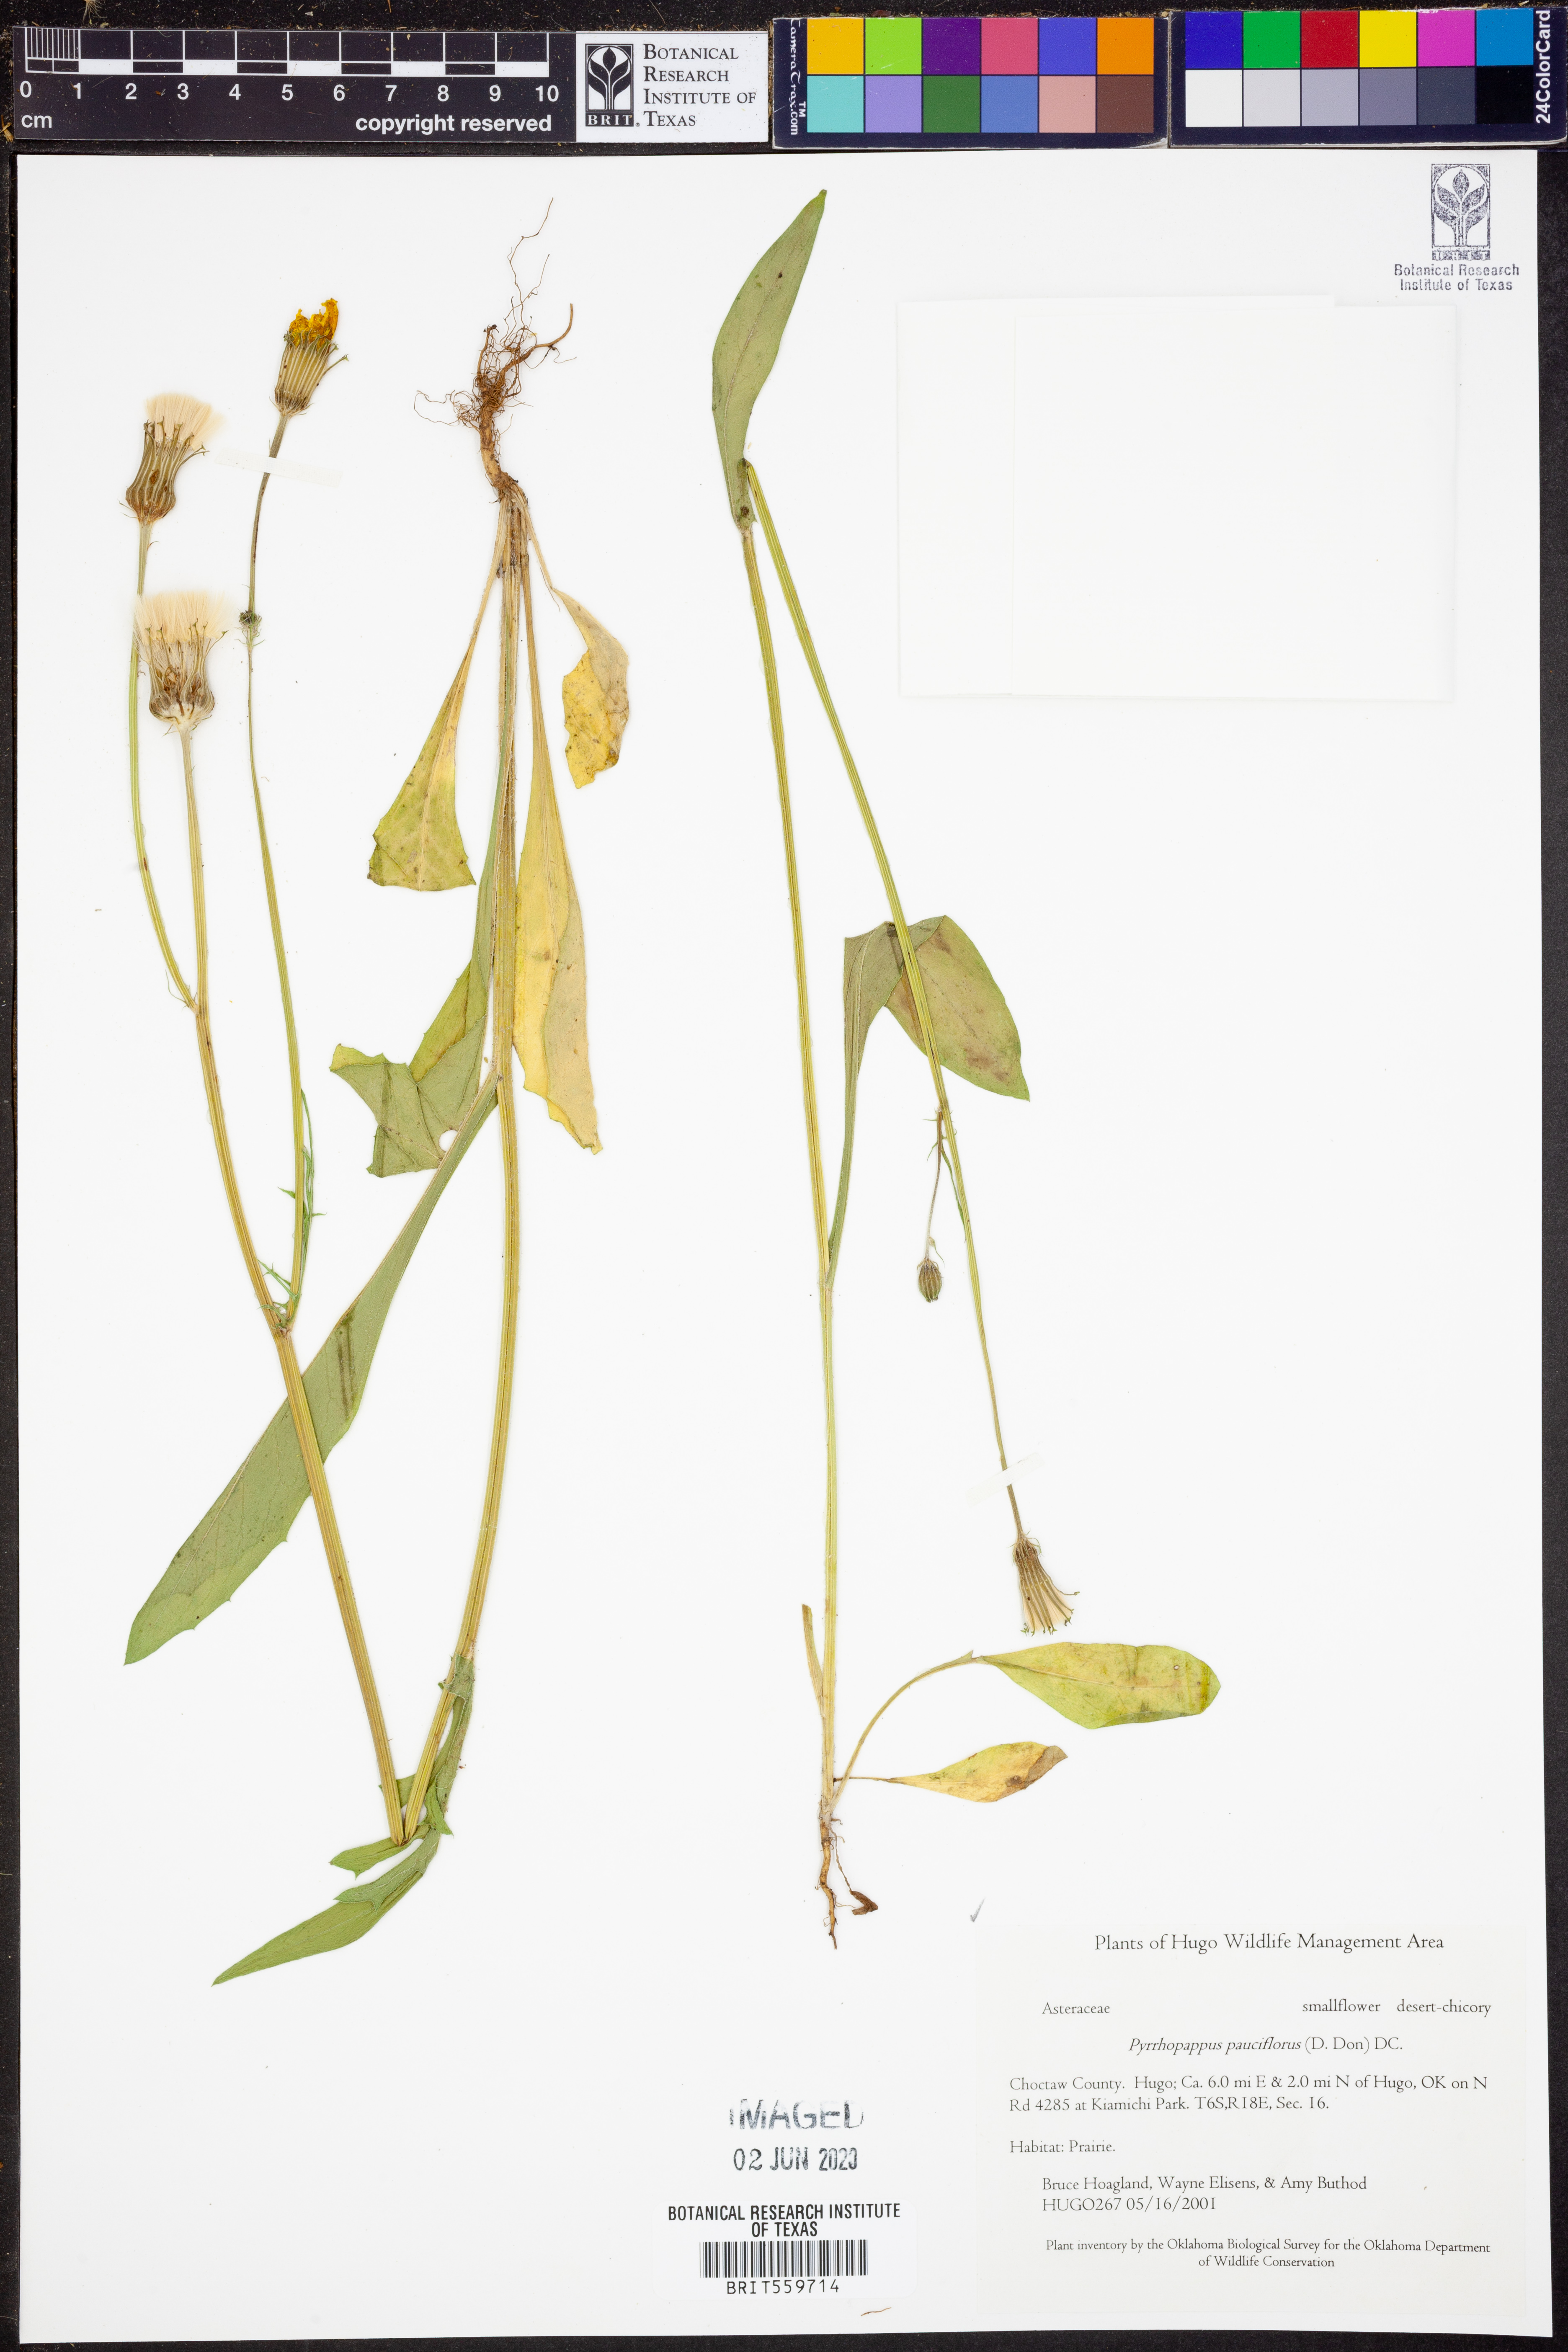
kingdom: Plantae
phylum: Tracheophyta
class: Magnoliopsida
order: Asterales
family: Asteraceae
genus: Pyrrhopappus
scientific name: Pyrrhopappus pauciflorus
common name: Texas false dandelion
